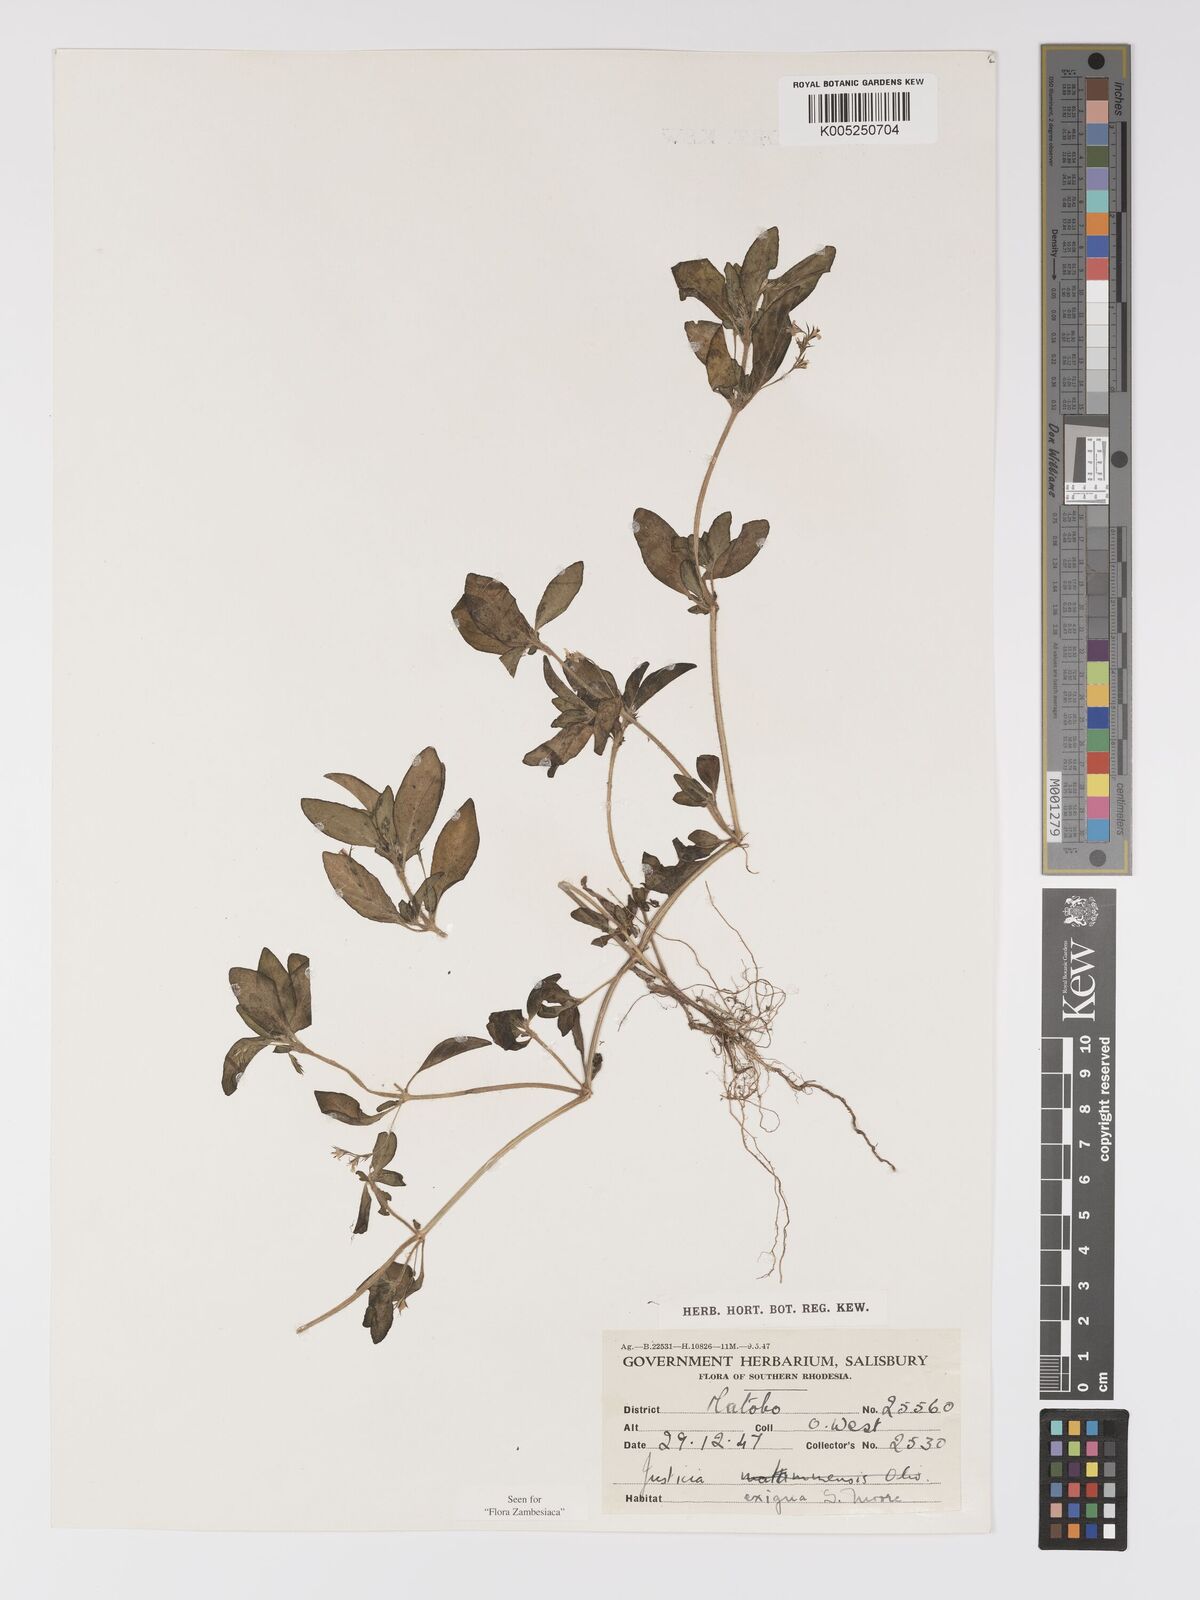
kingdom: Plantae
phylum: Tracheophyta
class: Magnoliopsida
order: Lamiales
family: Acanthaceae
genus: Justicia
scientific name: Justicia exigua
